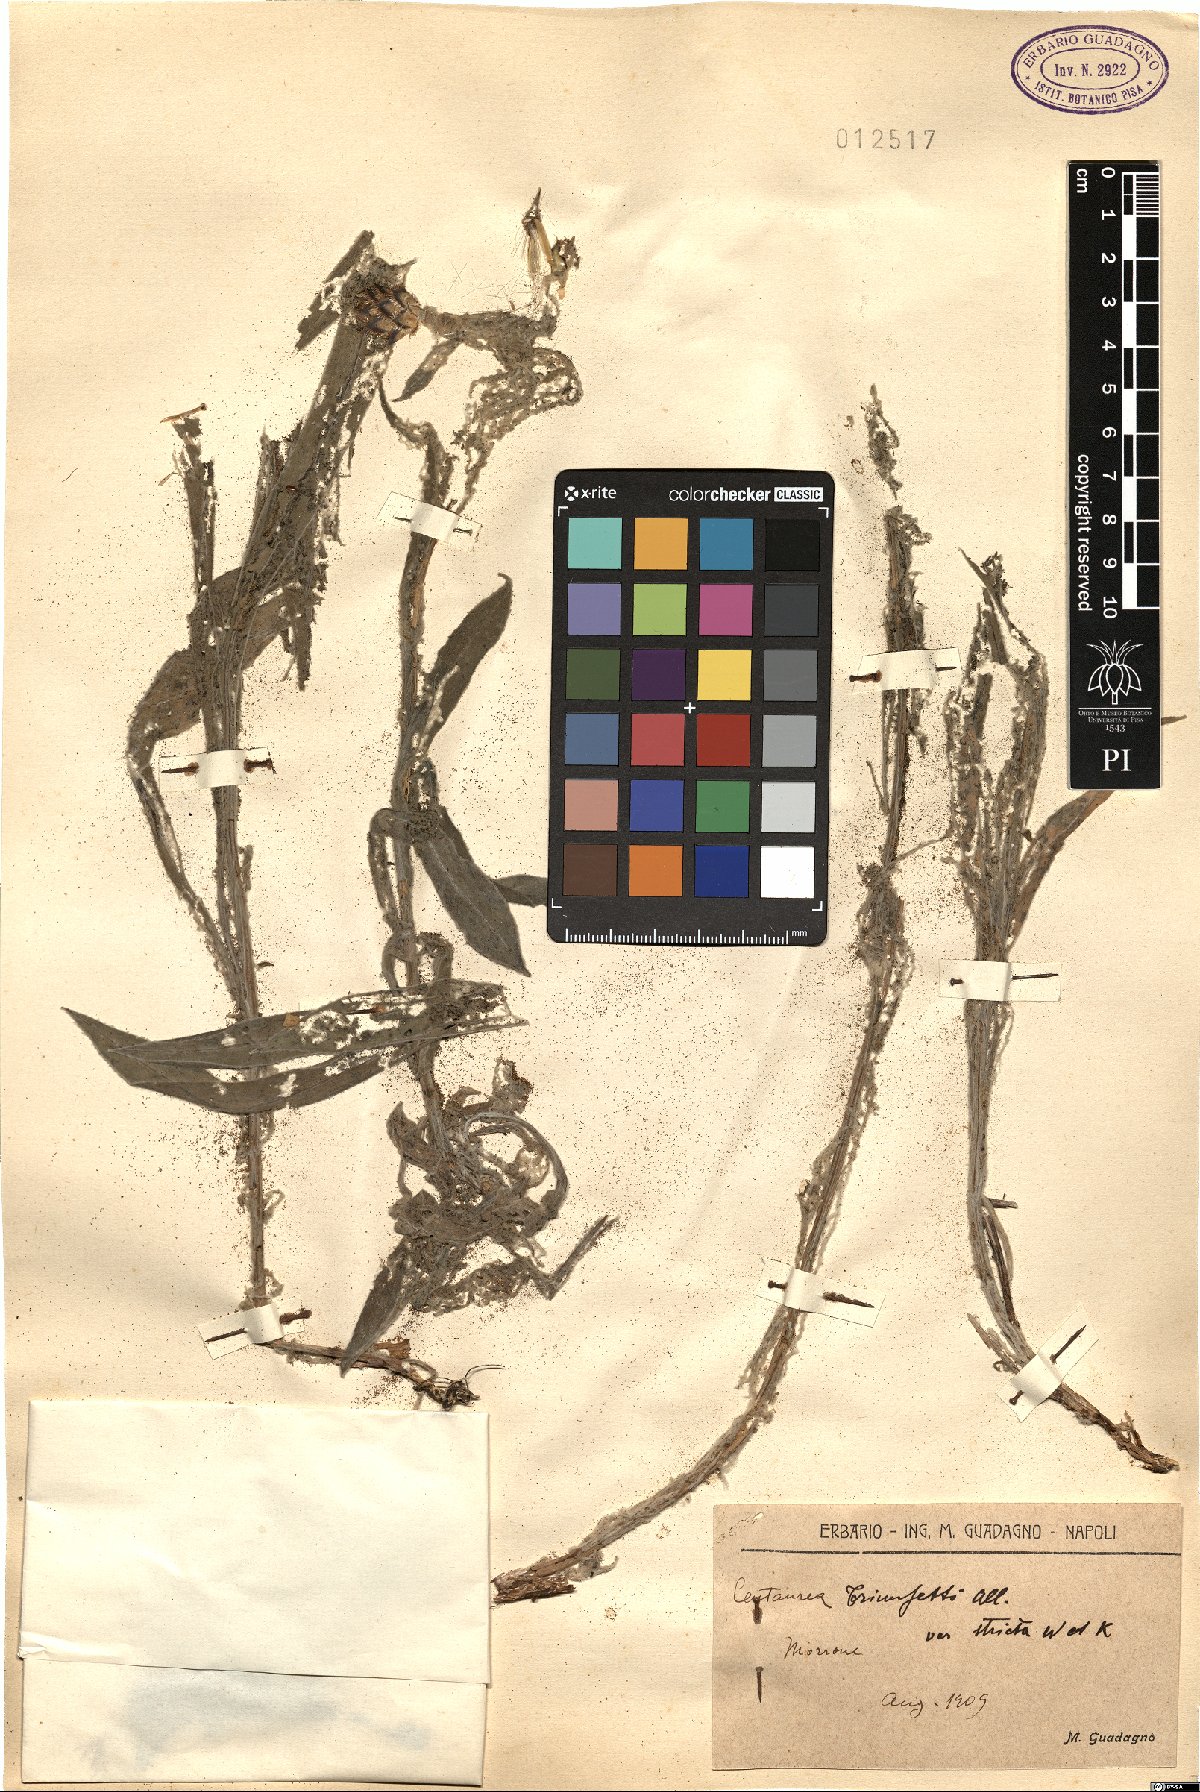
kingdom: Plantae
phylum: Tracheophyta
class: Magnoliopsida
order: Asterales
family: Asteraceae
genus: Centaurea
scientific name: Centaurea triumfettii
